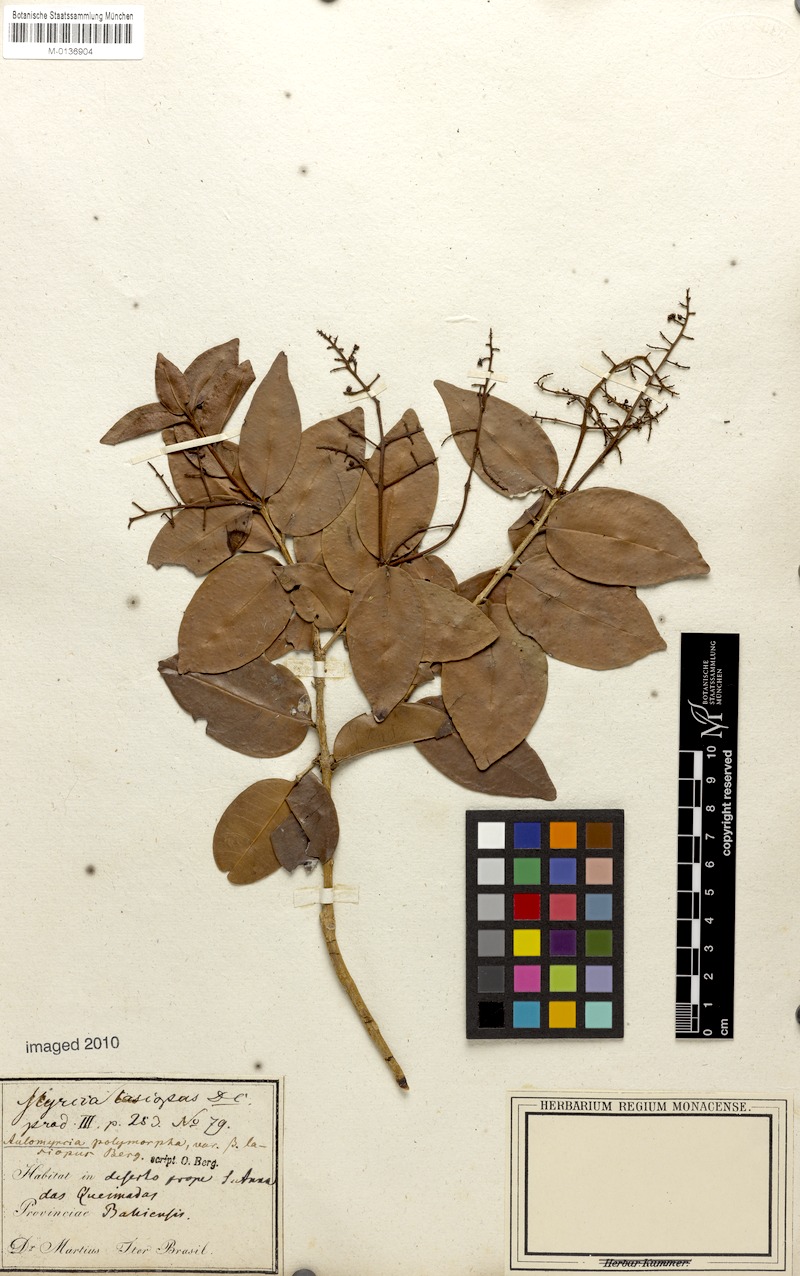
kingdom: Plantae
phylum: Tracheophyta
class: Magnoliopsida
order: Myrtales
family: Myrtaceae
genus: Myrcia
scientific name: Myrcia decorticans
